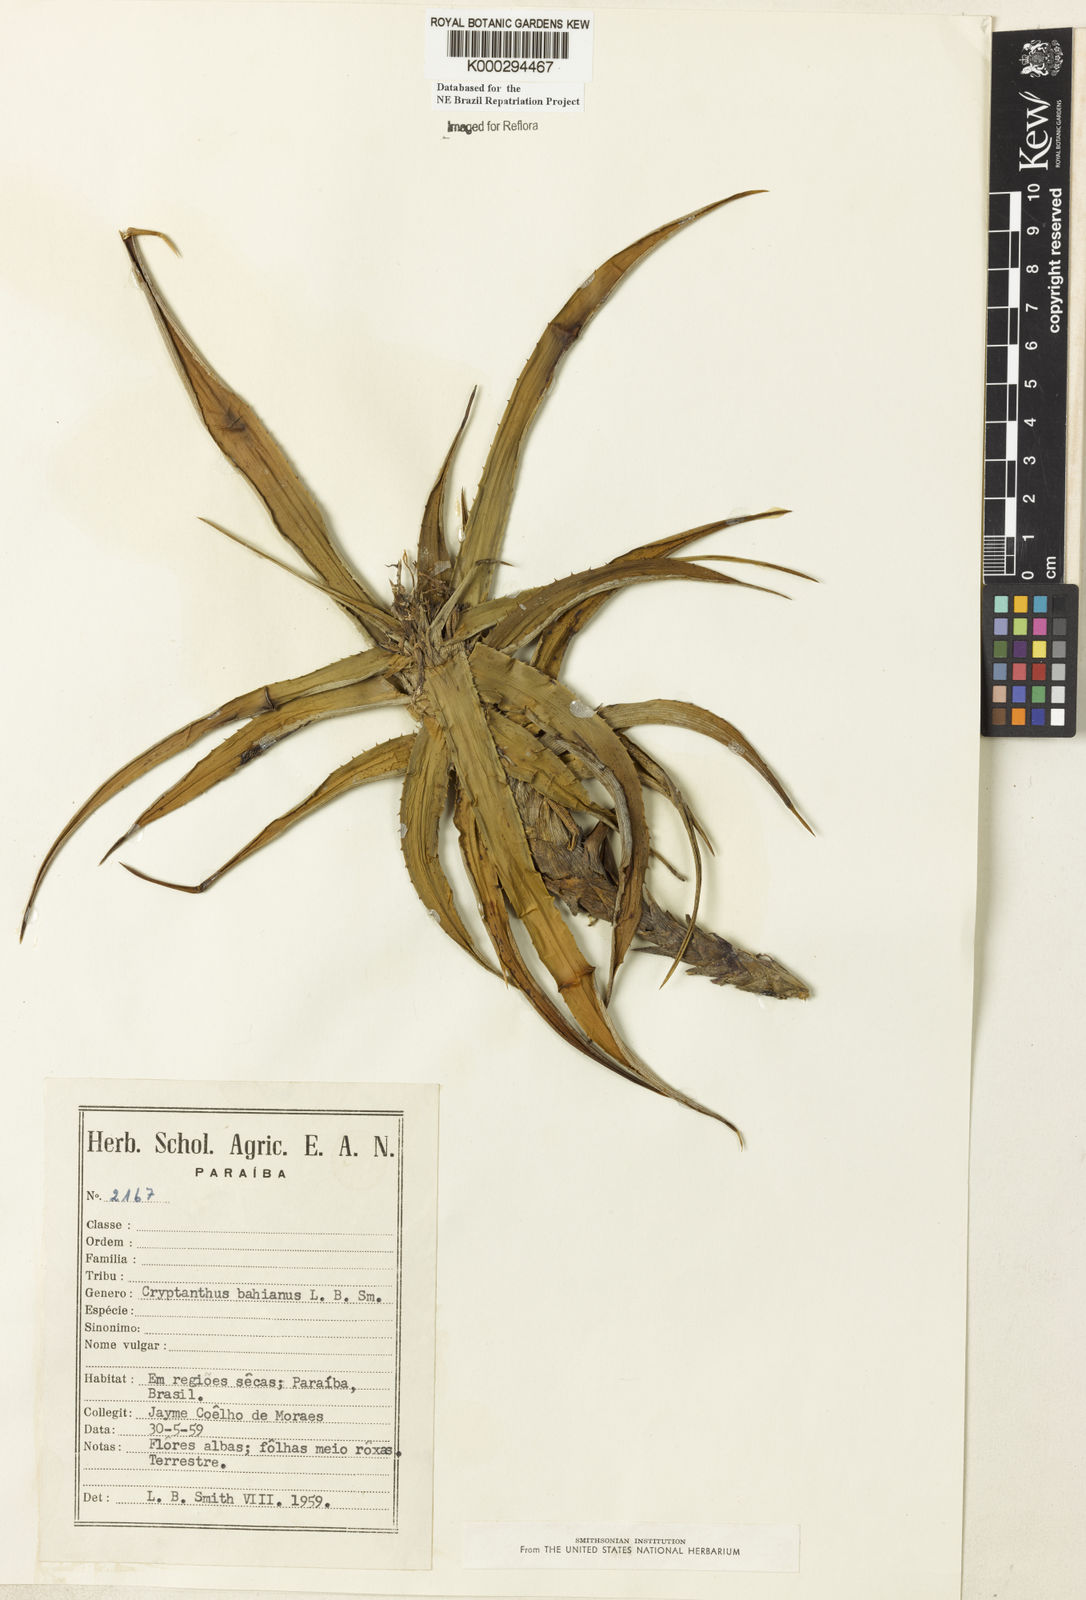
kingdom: Plantae
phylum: Tracheophyta
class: Liliopsida
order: Poales
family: Bromeliaceae
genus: Cryptanthus
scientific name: Cryptanthus bahianus
